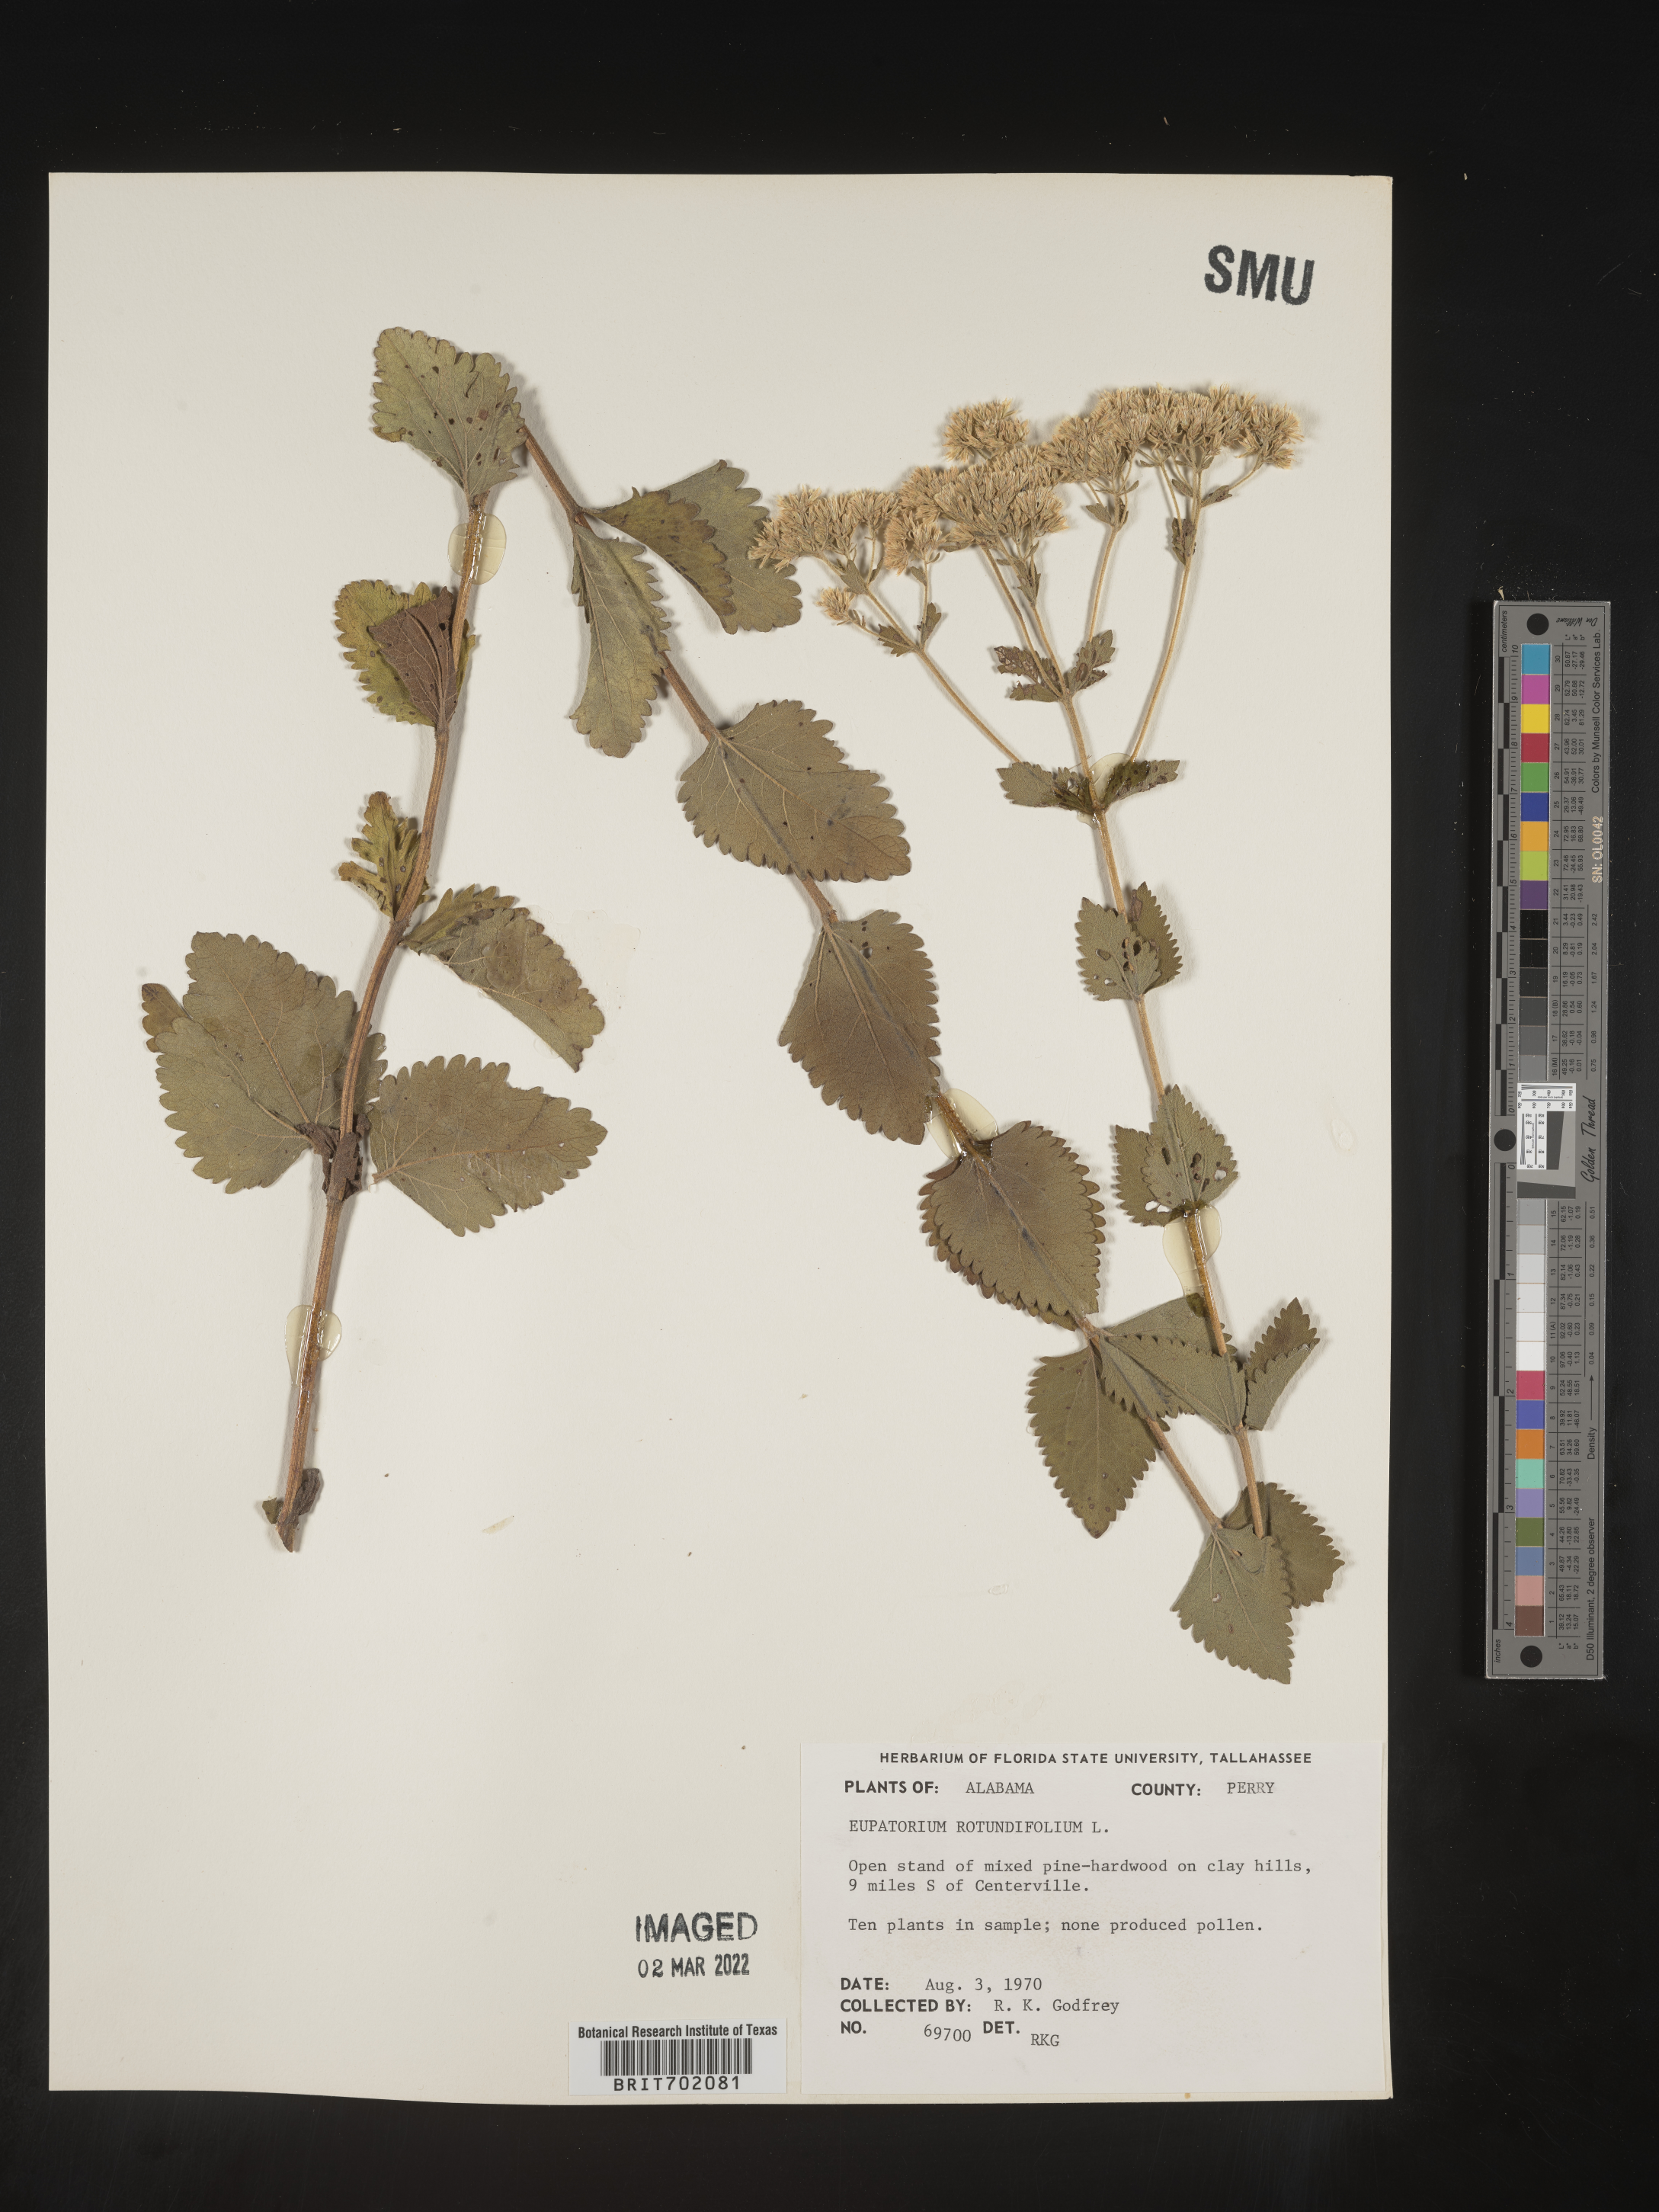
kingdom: Plantae
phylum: Tracheophyta
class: Magnoliopsida
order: Asterales
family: Asteraceae
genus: Eupatorium
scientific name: Eupatorium rotundifolium
